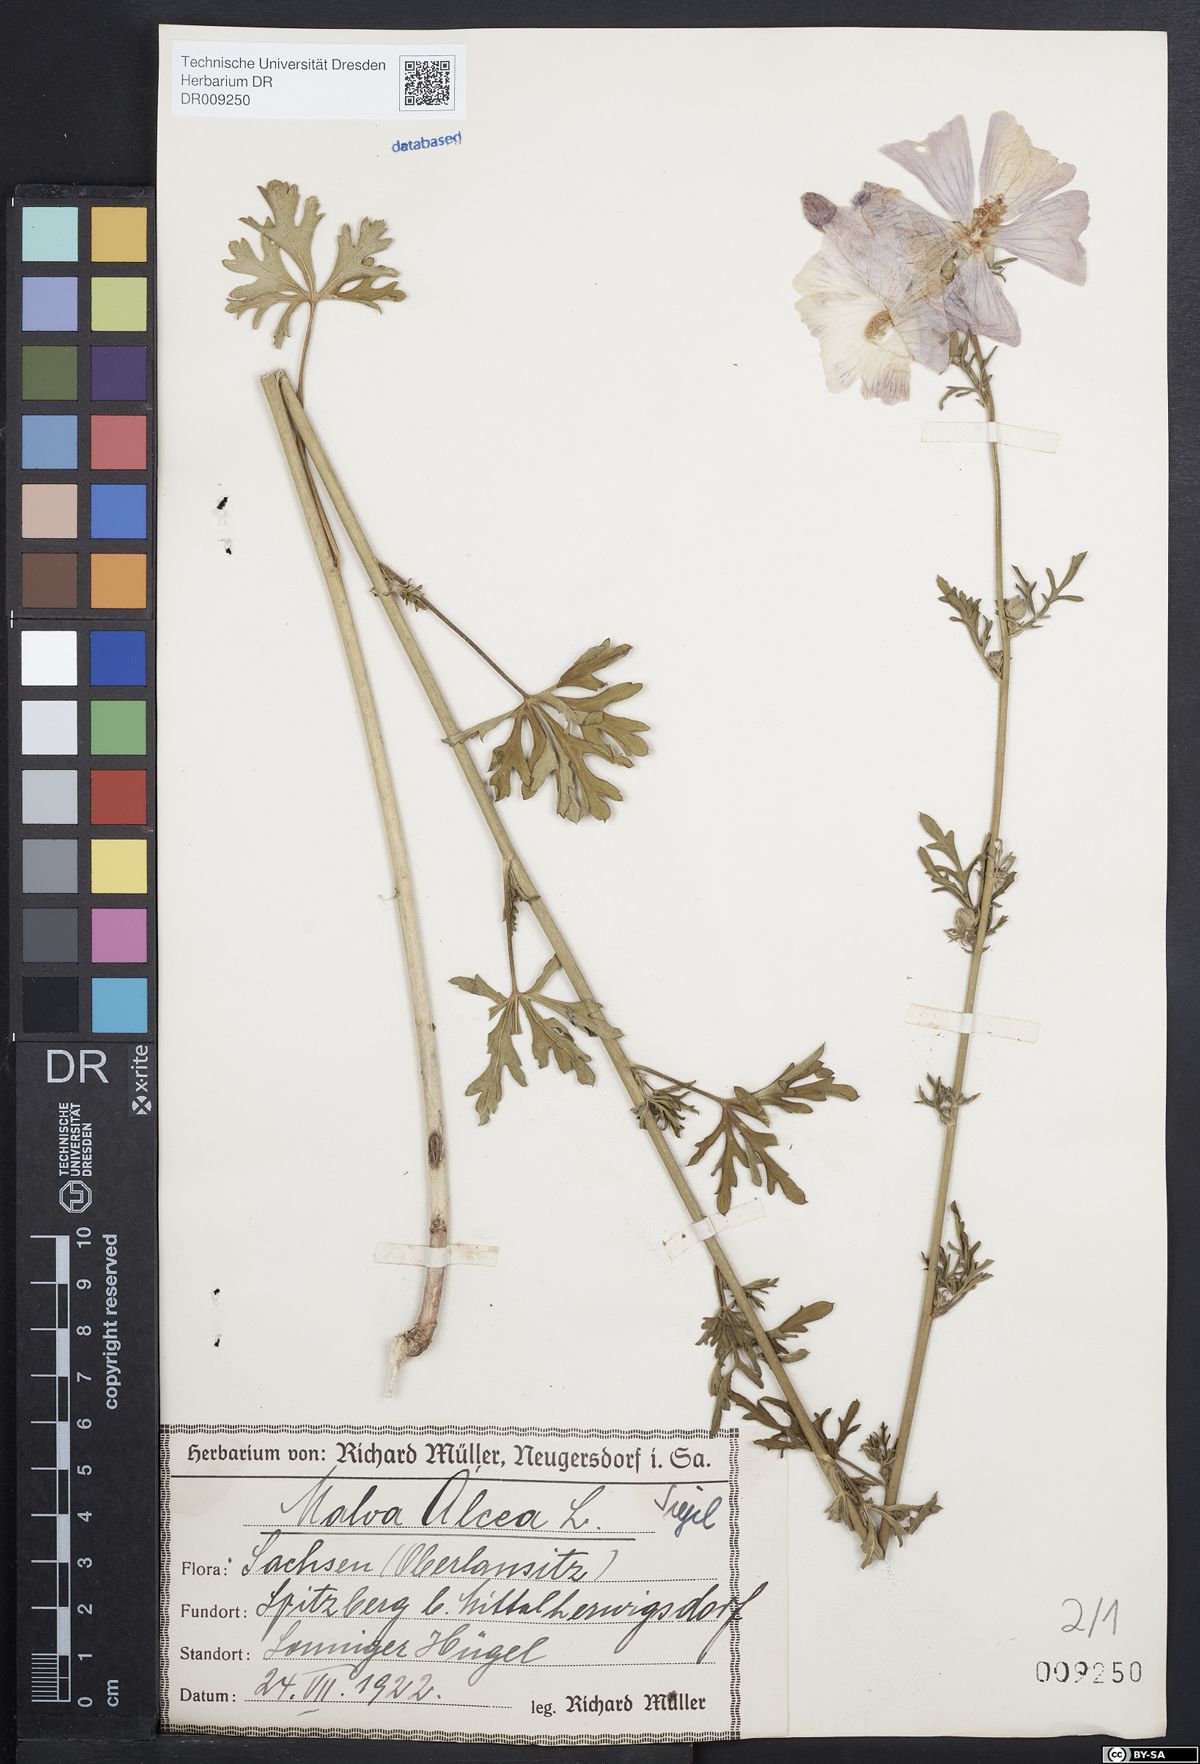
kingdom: Plantae
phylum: Tracheophyta
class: Magnoliopsida
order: Malvales
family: Malvaceae
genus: Malva
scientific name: Malva alcea
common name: Greater musk-mallow
